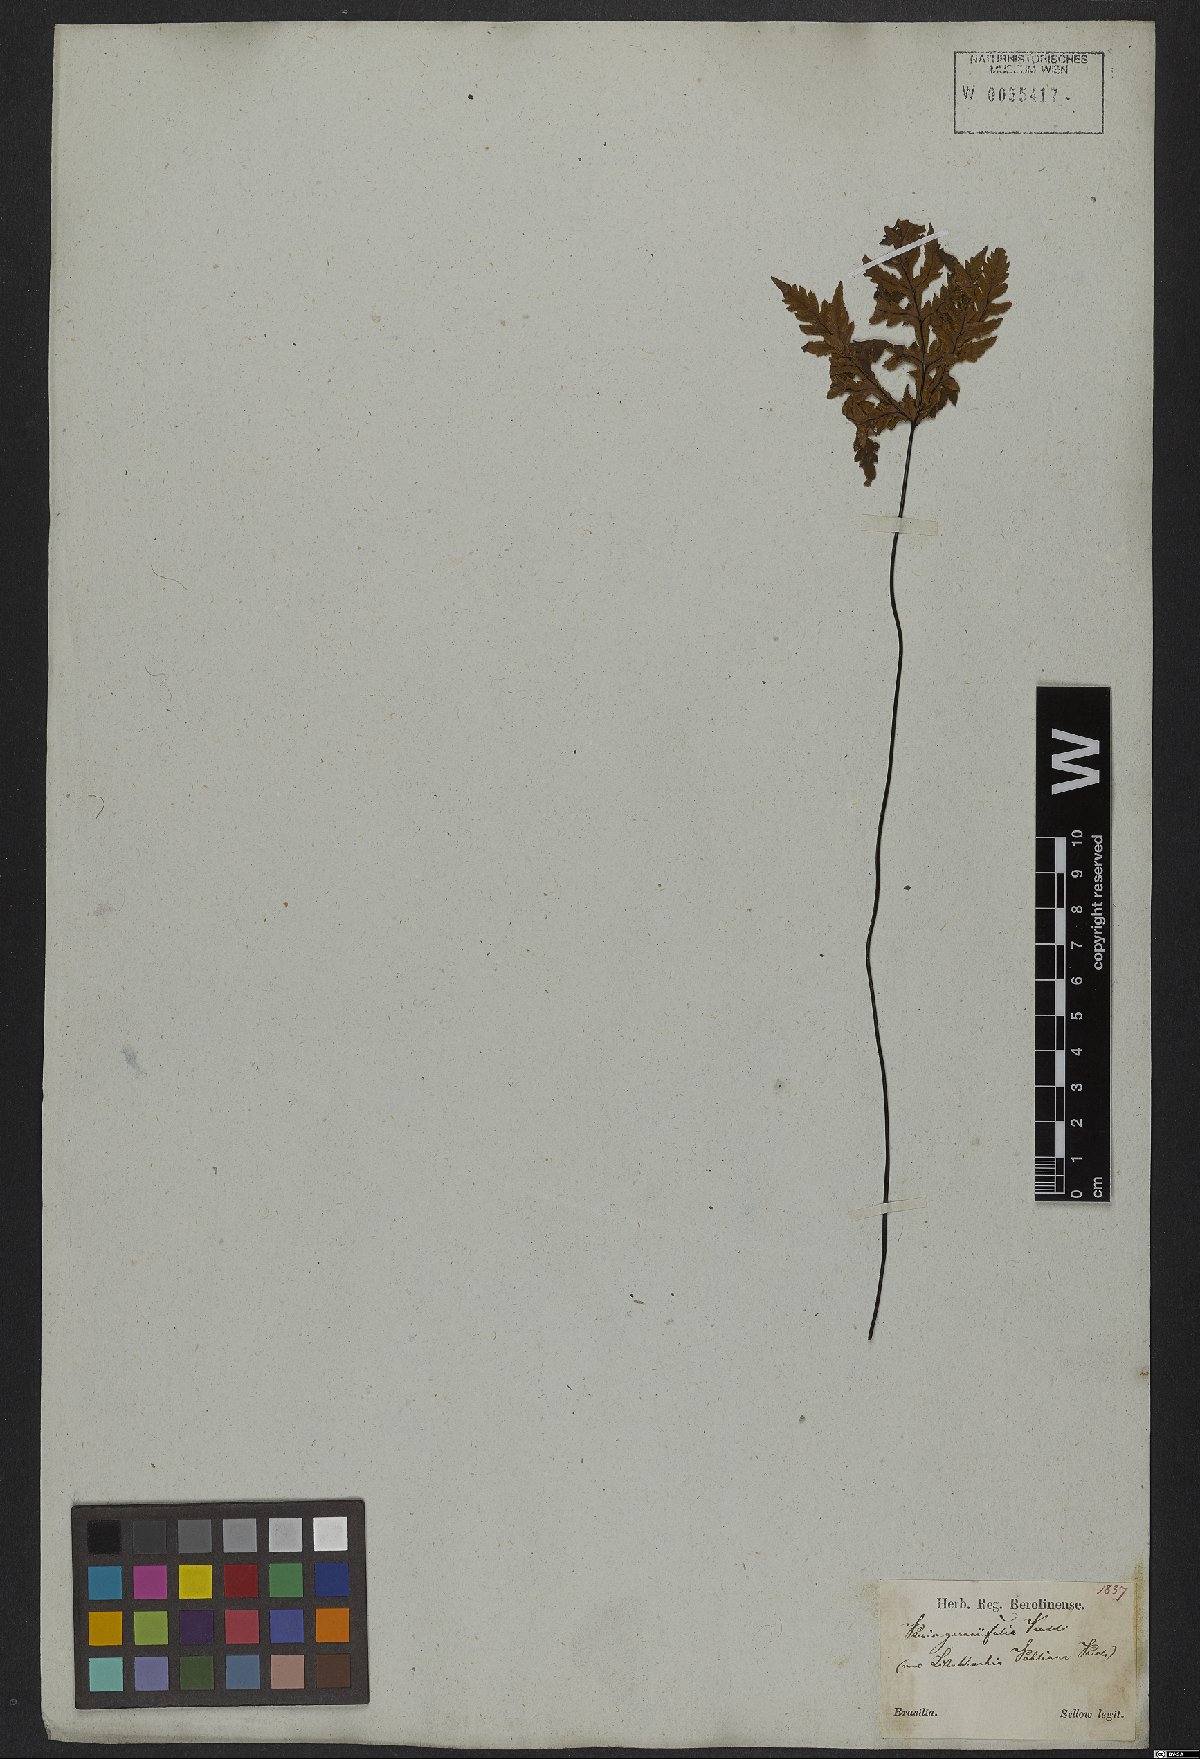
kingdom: Plantae
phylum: Tracheophyta
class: Polypodiopsida
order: Polypodiales
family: Pteridaceae
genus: Doryopteris
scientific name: Doryopteris concolor
